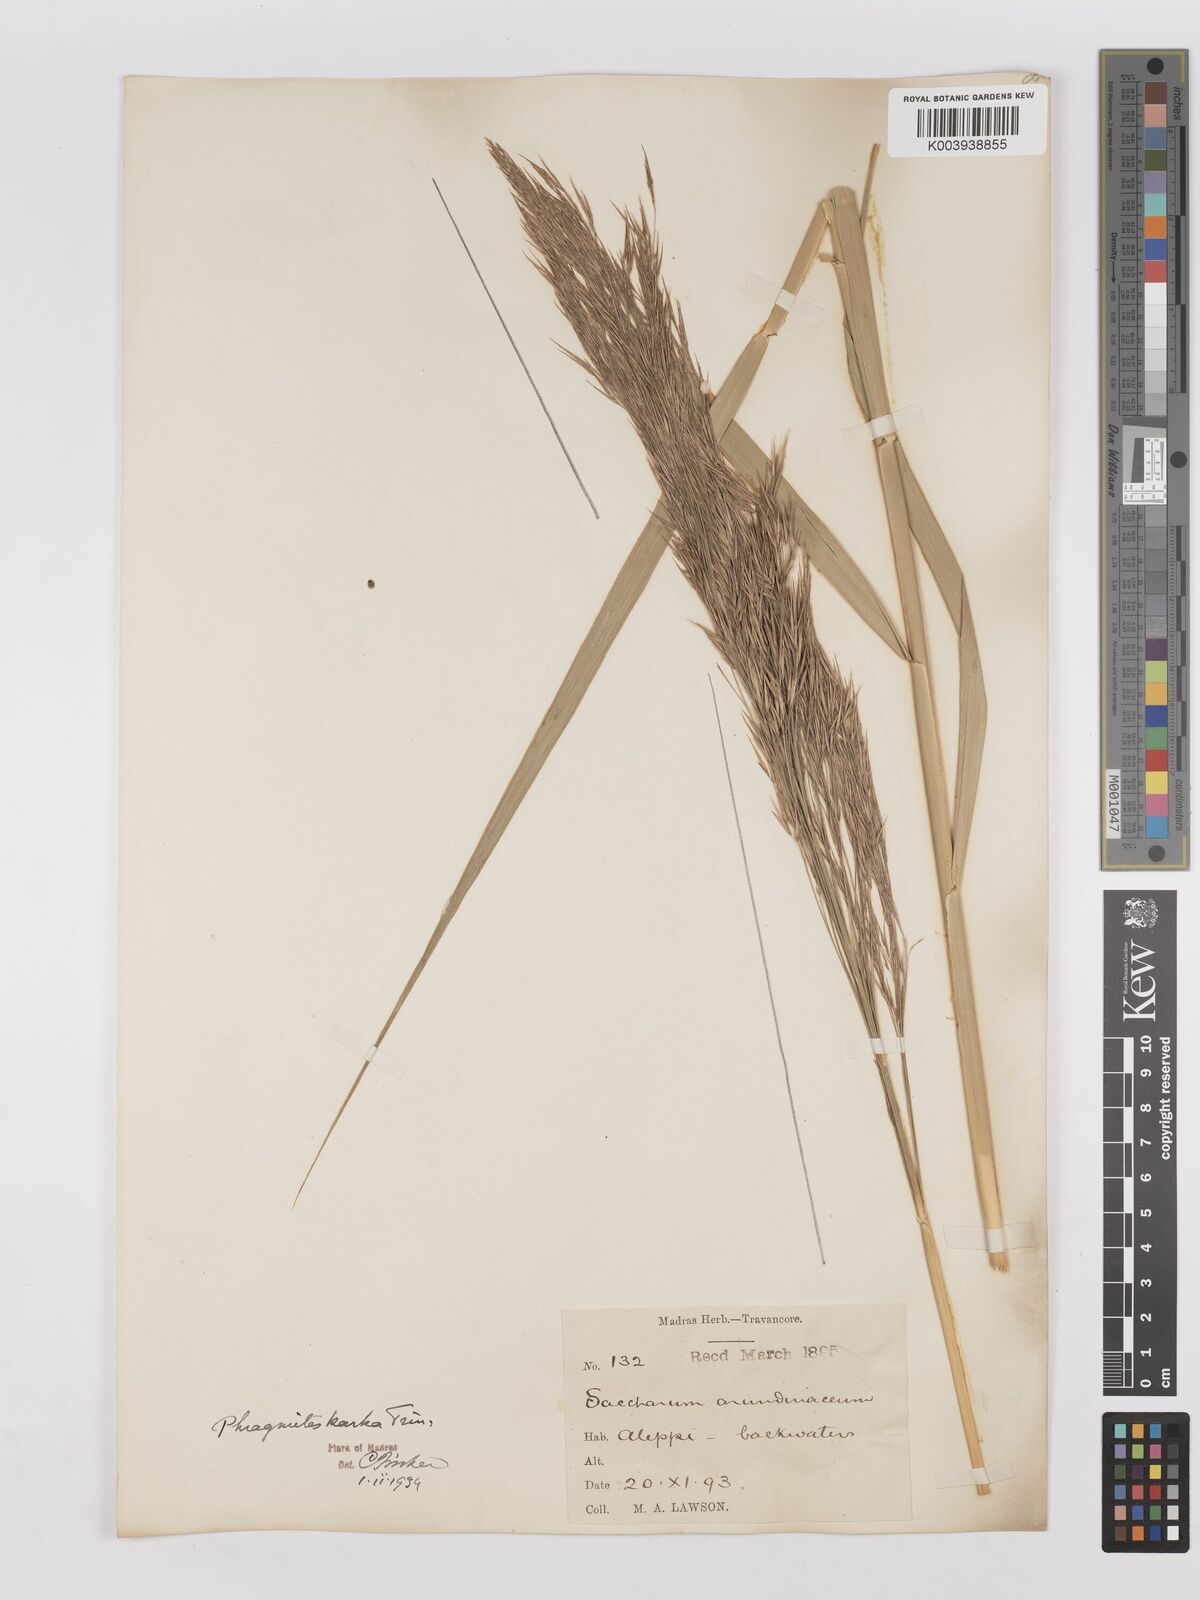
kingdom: Plantae
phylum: Tracheophyta
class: Liliopsida
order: Poales
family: Poaceae
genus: Phragmites
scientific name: Phragmites karka
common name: Tropical reed
